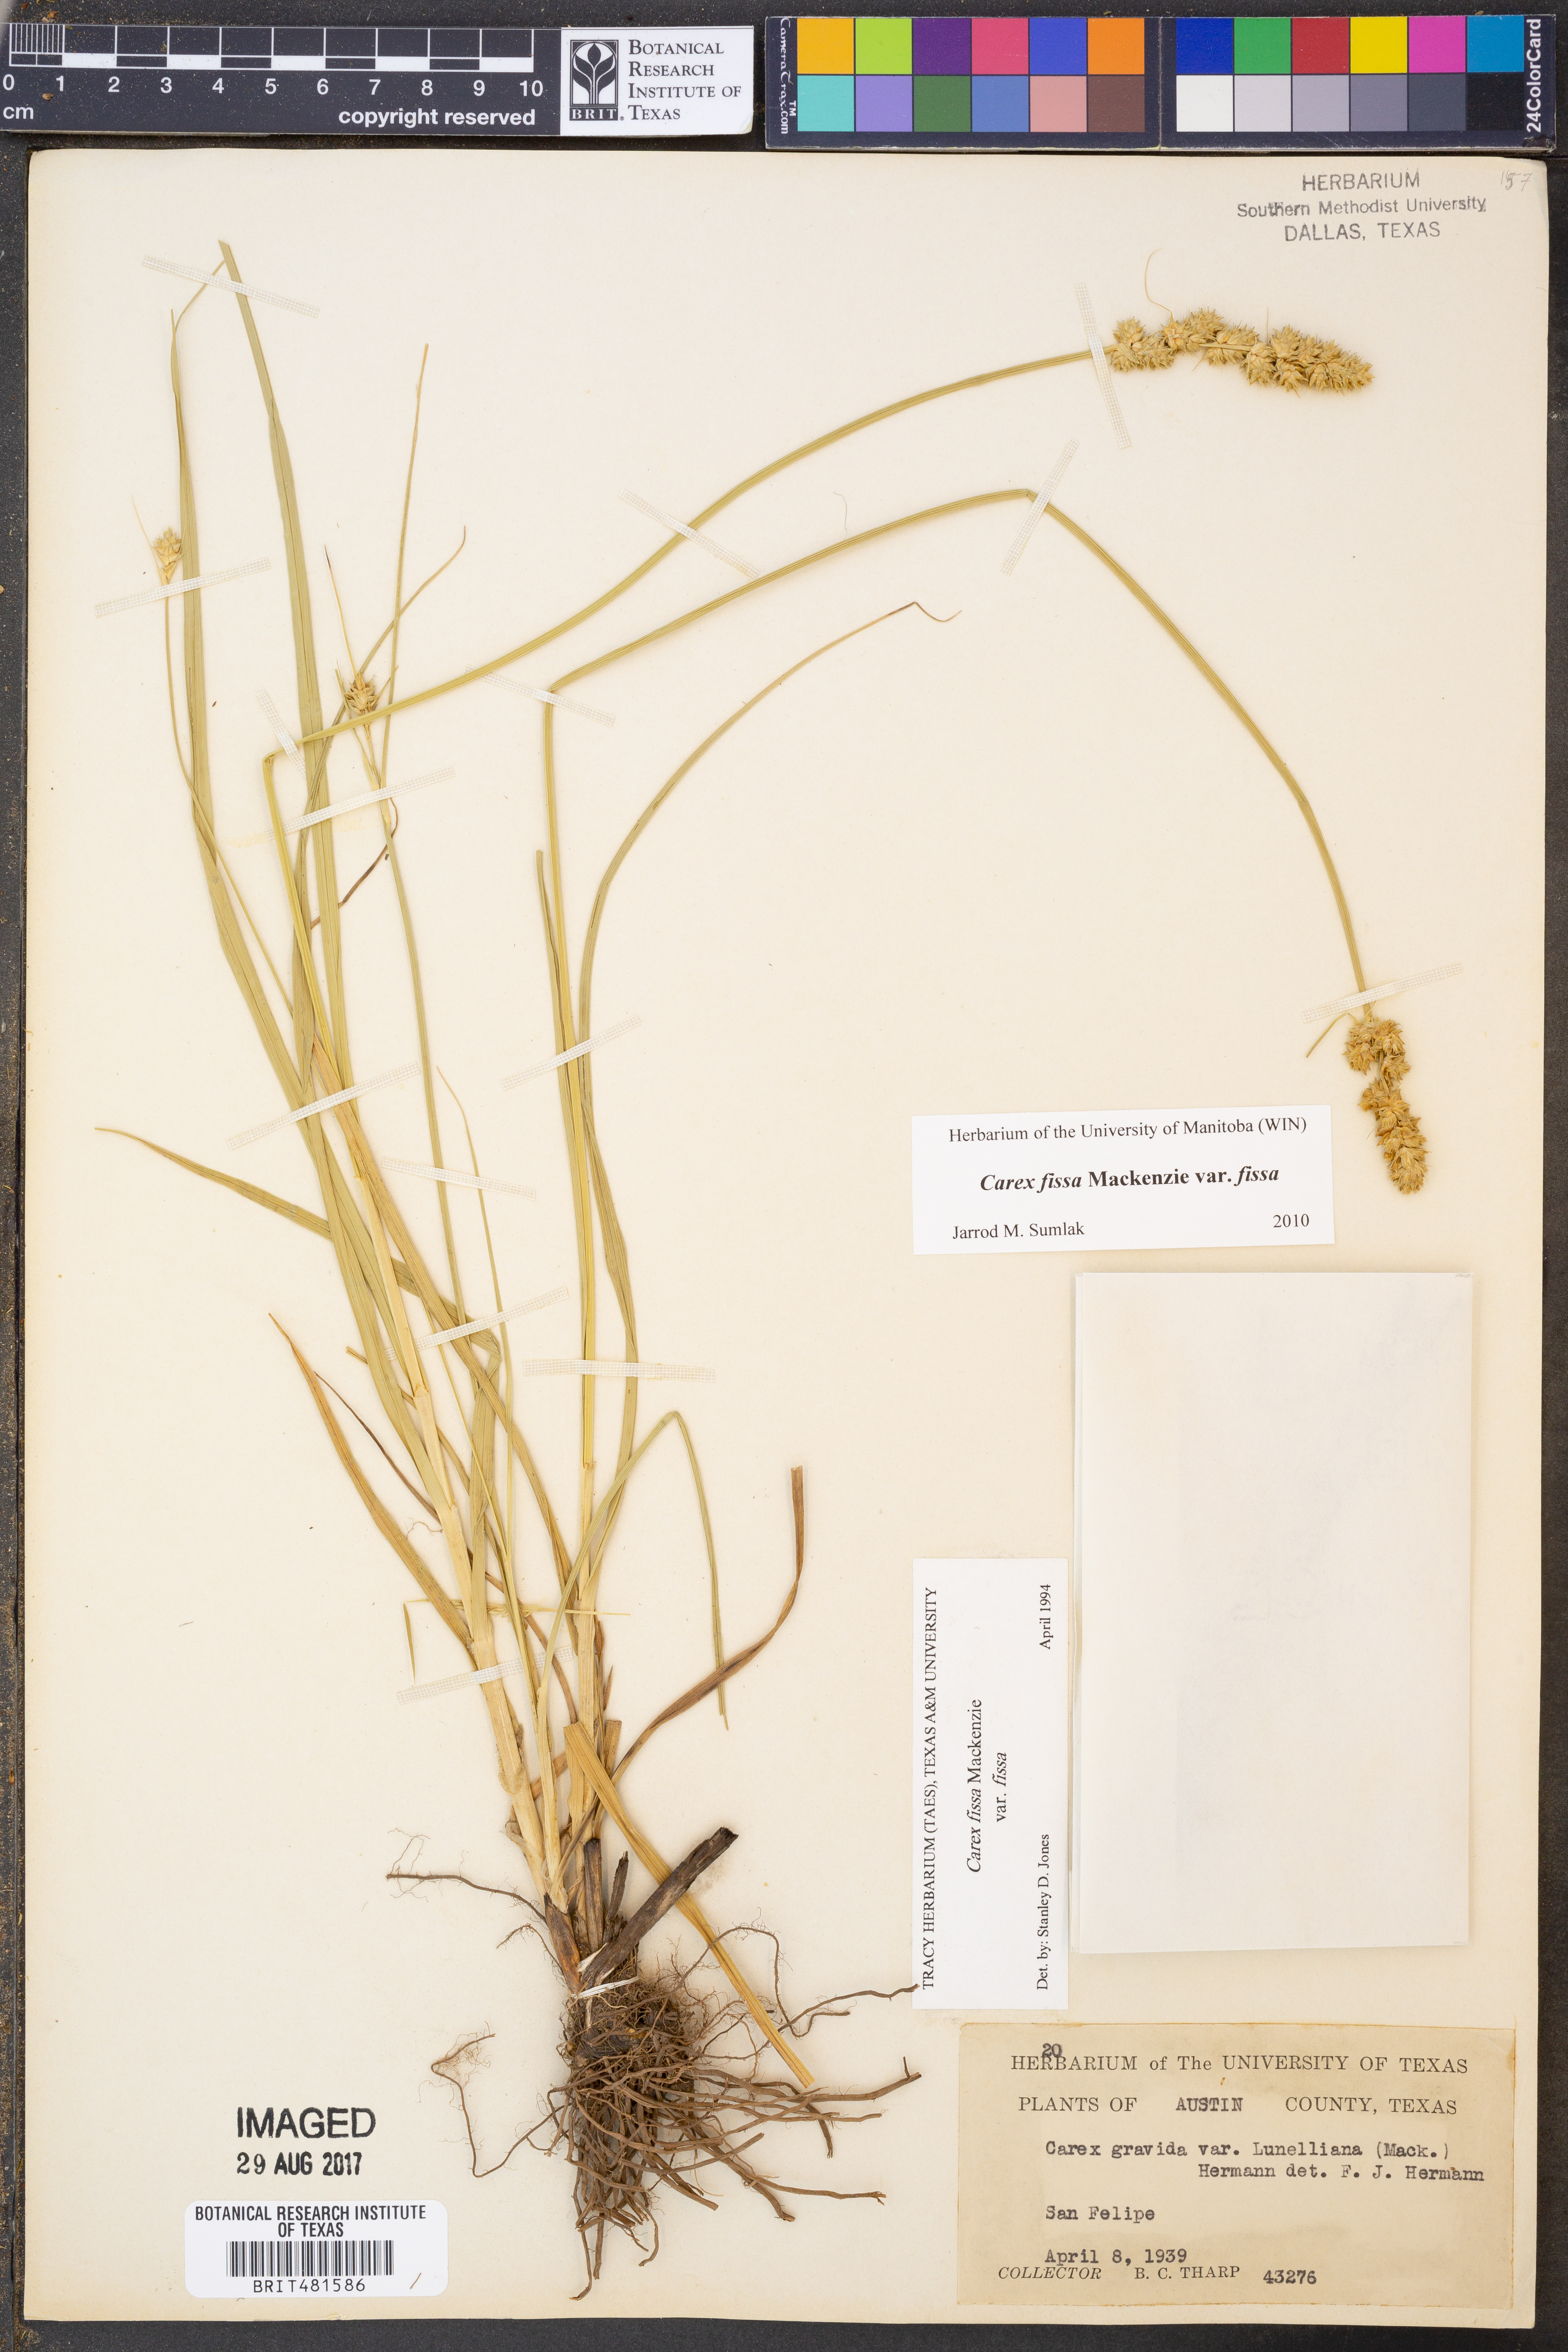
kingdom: Plantae
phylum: Tracheophyta
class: Liliopsida
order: Poales
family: Cyperaceae
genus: Carex
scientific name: Carex fissa
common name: Hammock sedge
